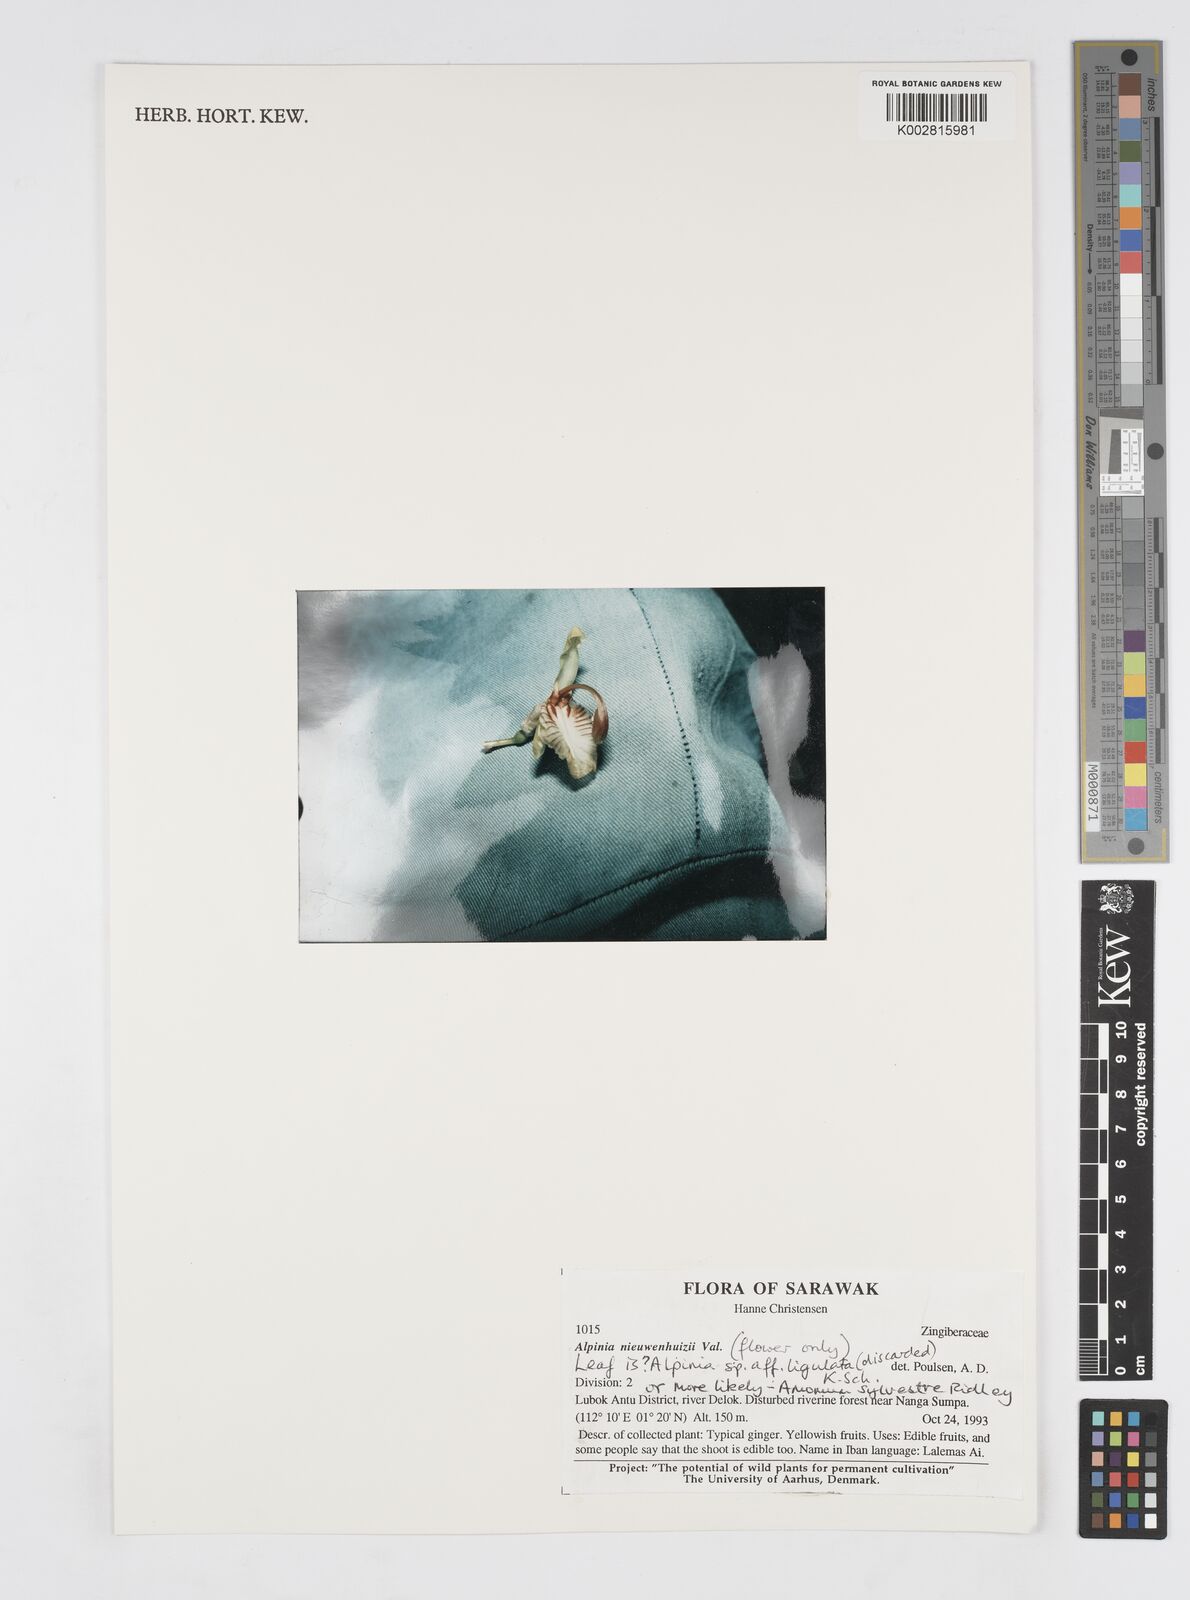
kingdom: Plantae
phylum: Tracheophyta
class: Liliopsida
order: Zingiberales
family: Zingiberaceae
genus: Alpinia
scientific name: Alpinia nieuwenhuizii
